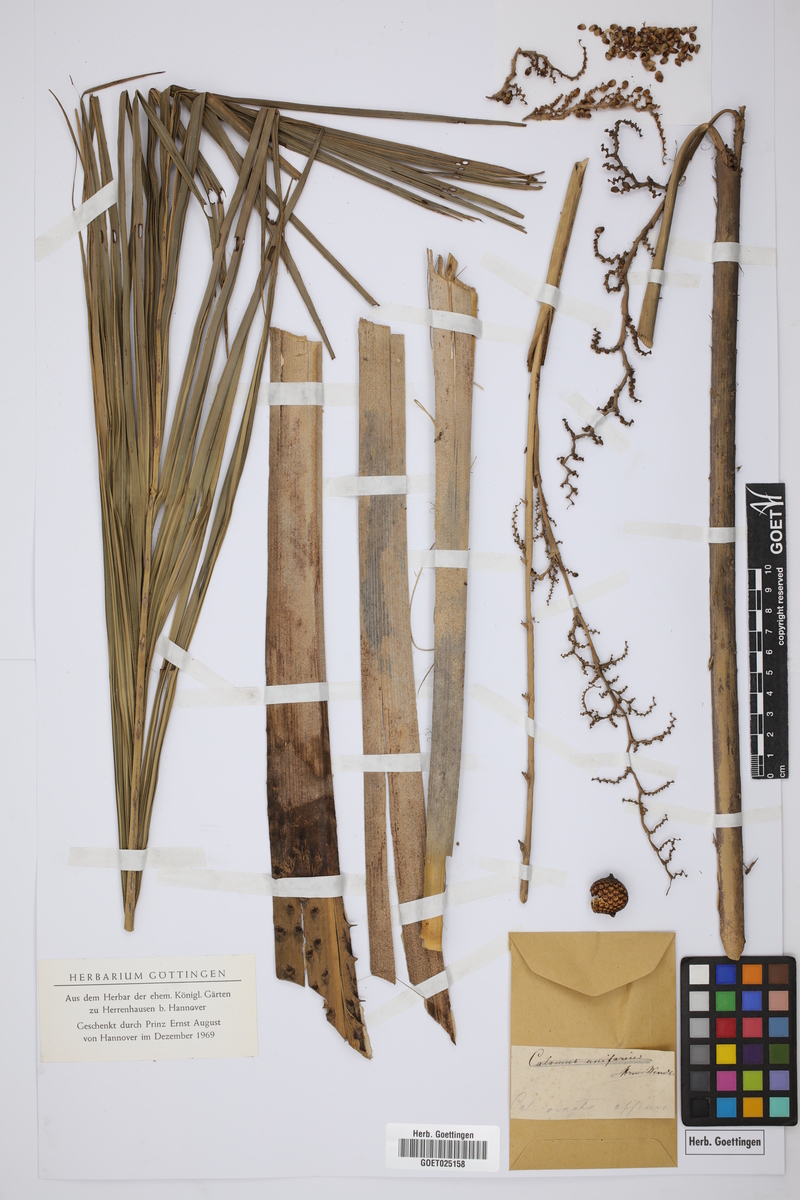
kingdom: Plantae
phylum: Tracheophyta
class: Liliopsida
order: Arecales
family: Arecaceae
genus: Calamus
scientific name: Calamus ornatus
